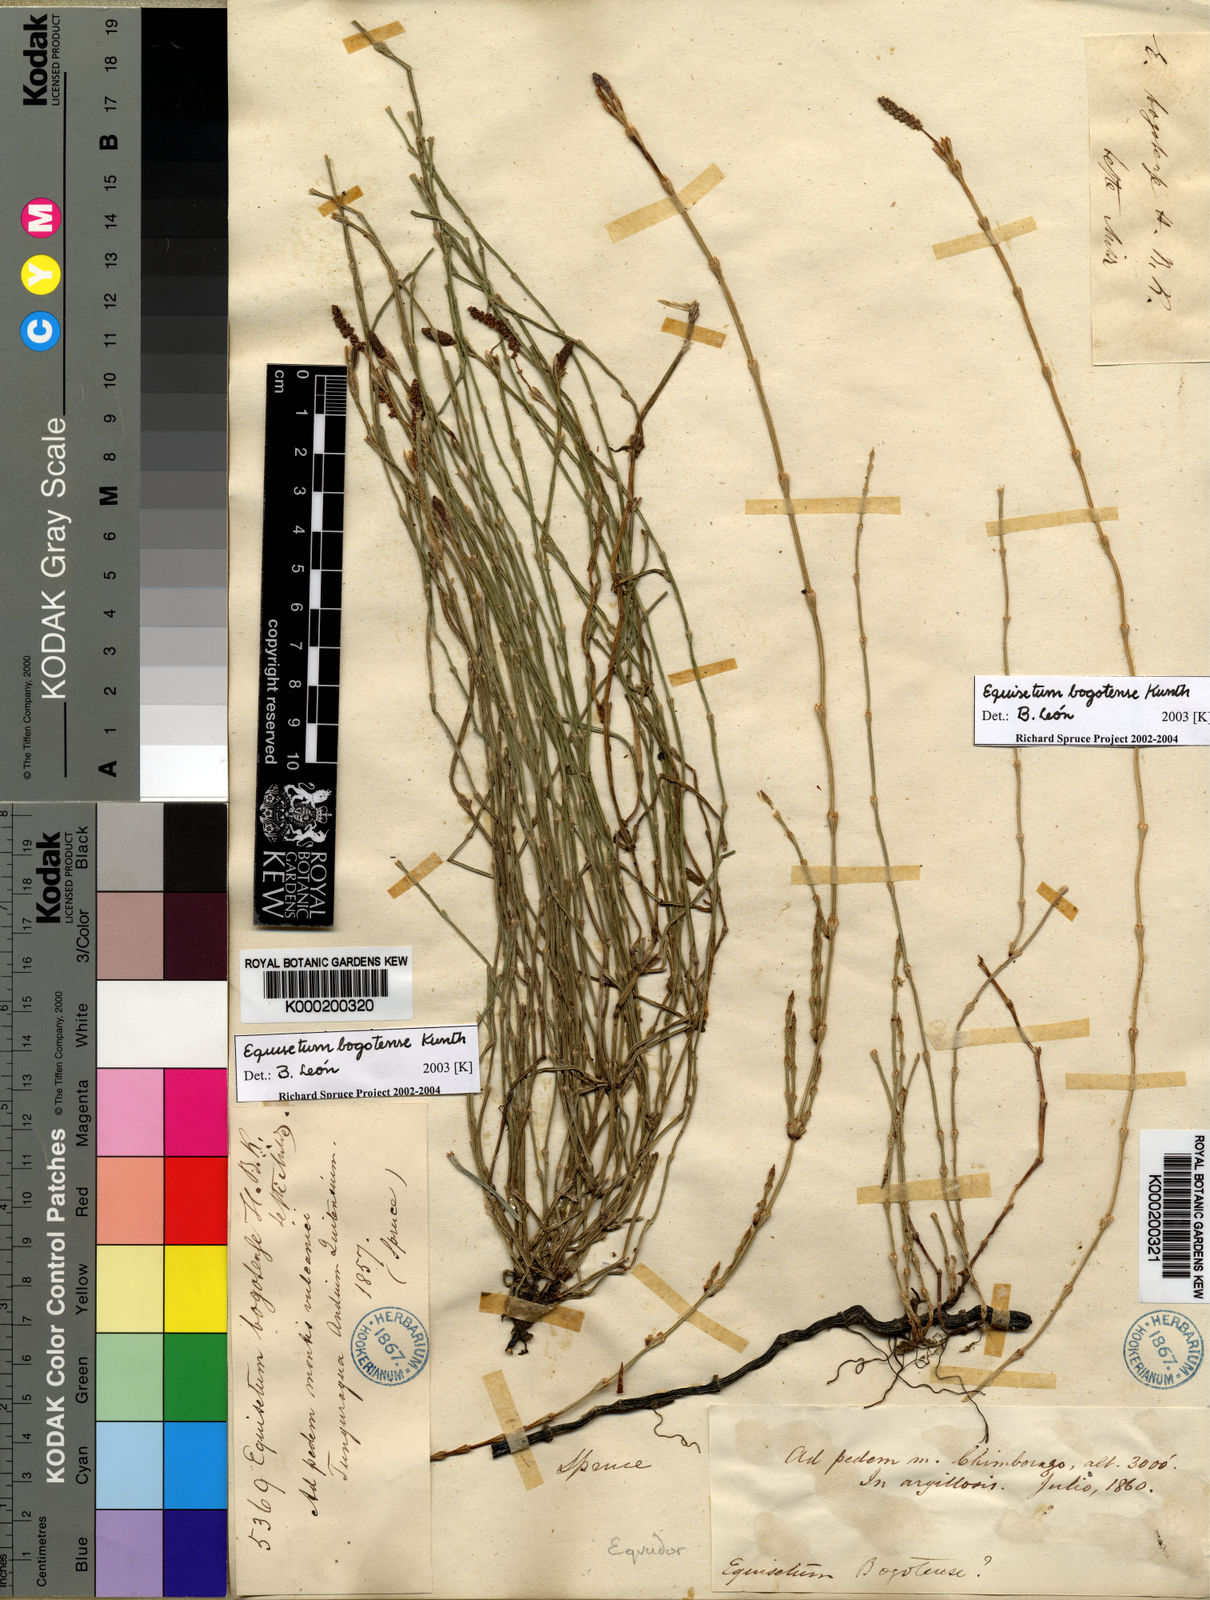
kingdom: Plantae
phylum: Tracheophyta
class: Polypodiopsida
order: Equisetales
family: Equisetaceae
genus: Equisetum
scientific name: Equisetum bogotense
